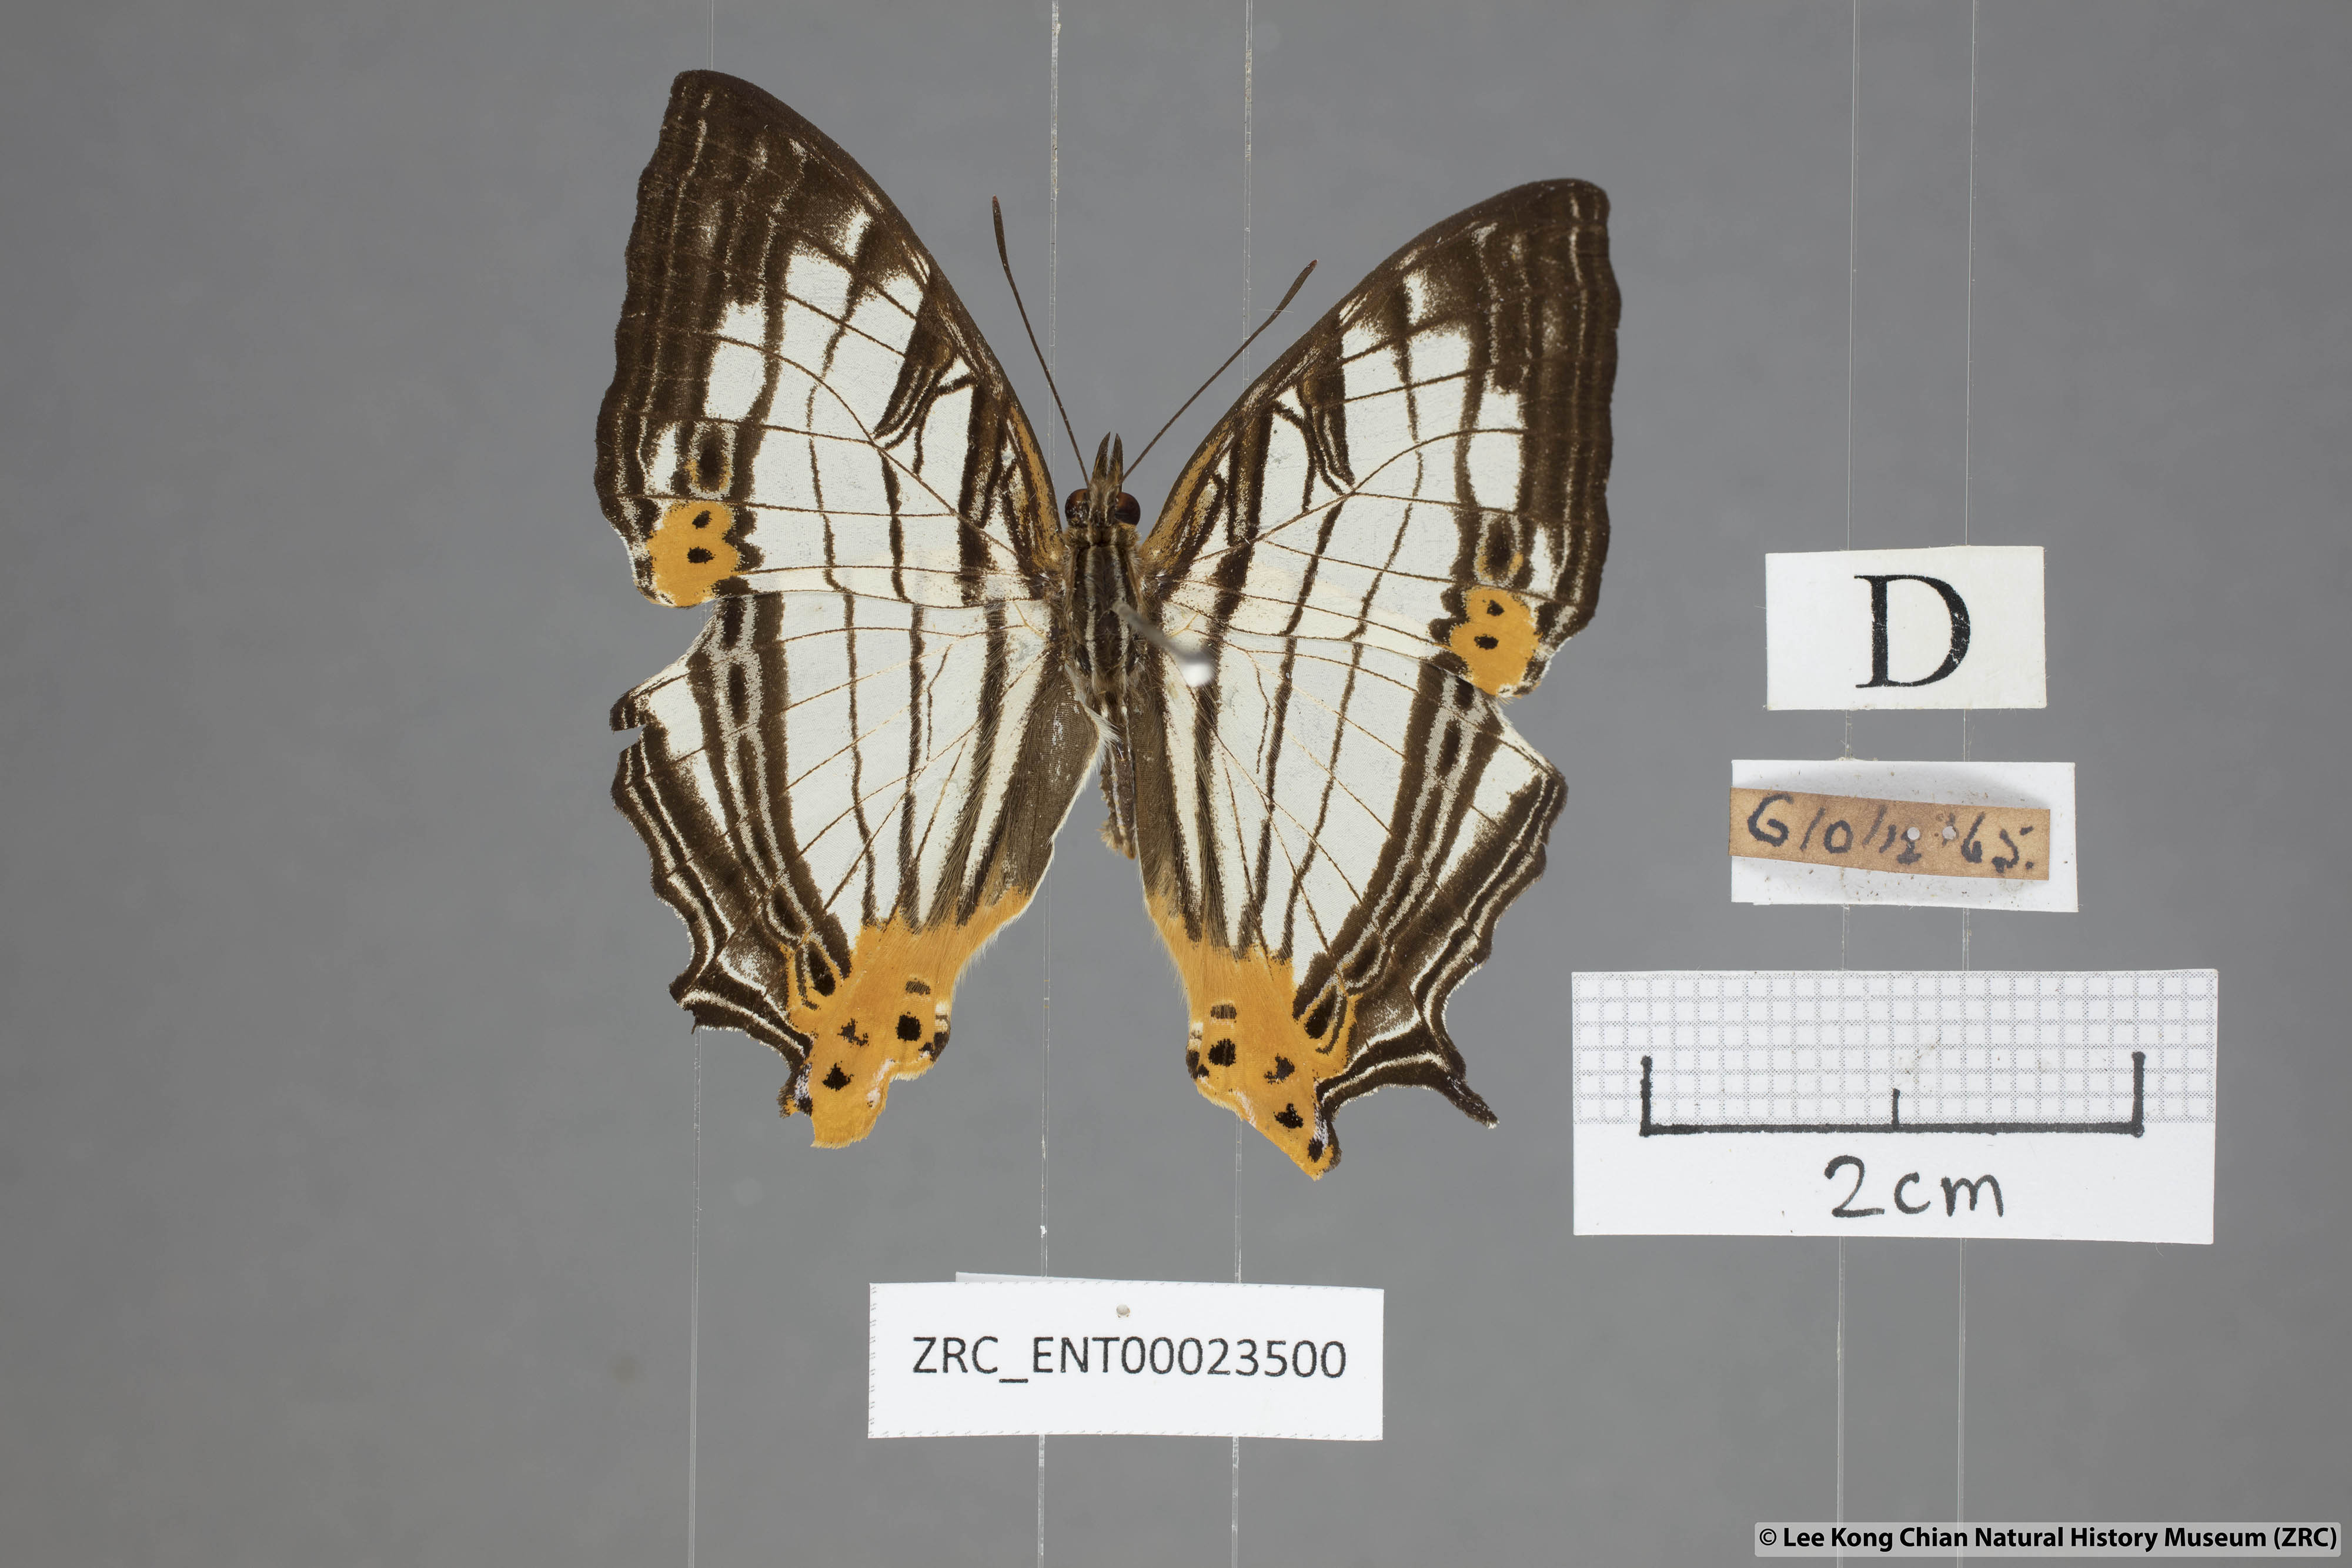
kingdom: Animalia
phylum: Arthropoda
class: Insecta
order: Lepidoptera
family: Nymphalidae
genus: Cyrestis
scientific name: Cyrestis maenalis
